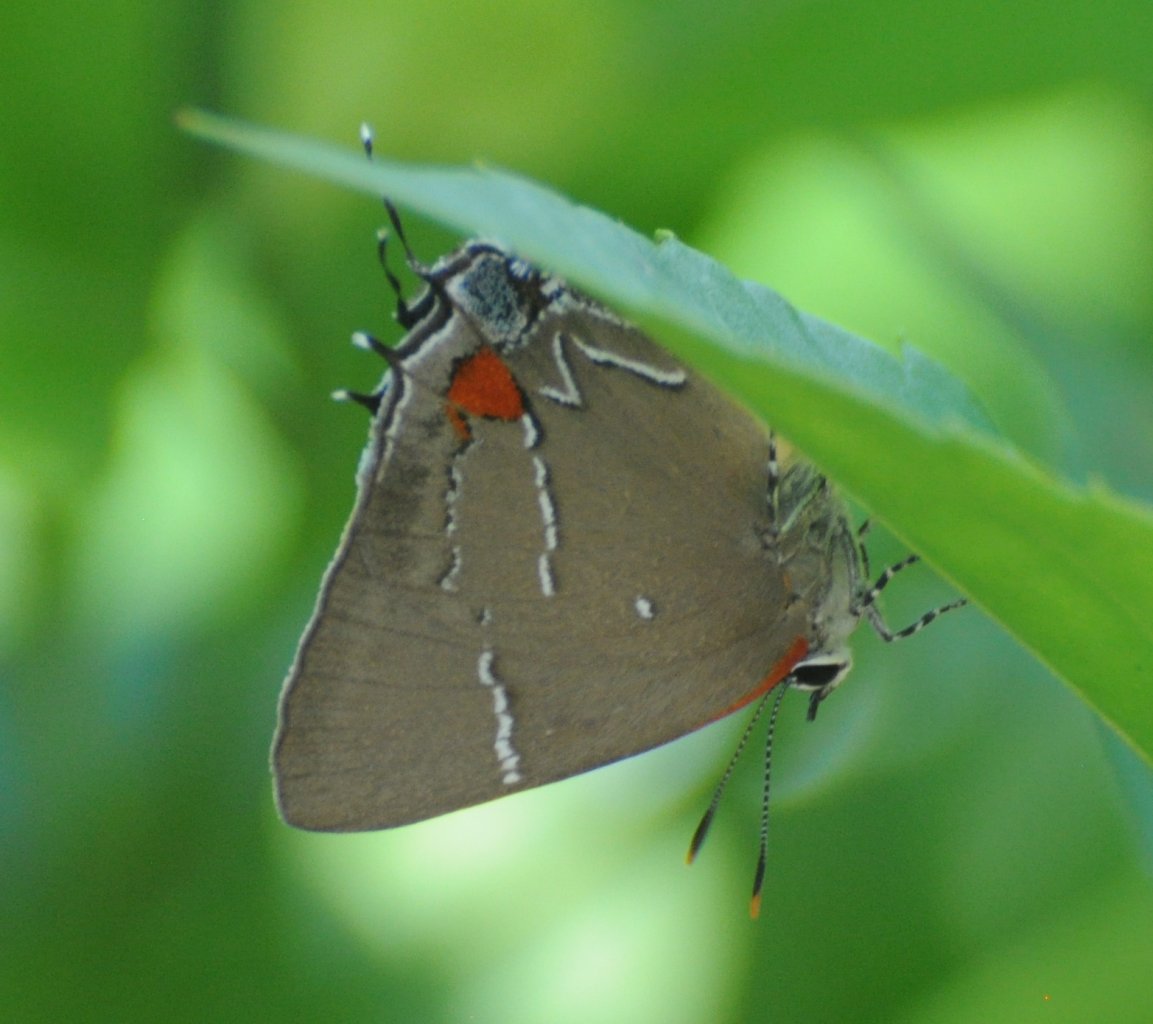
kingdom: Animalia
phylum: Arthropoda
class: Insecta
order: Lepidoptera
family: Lycaenidae
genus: Parrhasius
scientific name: Parrhasius m-album
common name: White-m Hairstreak
